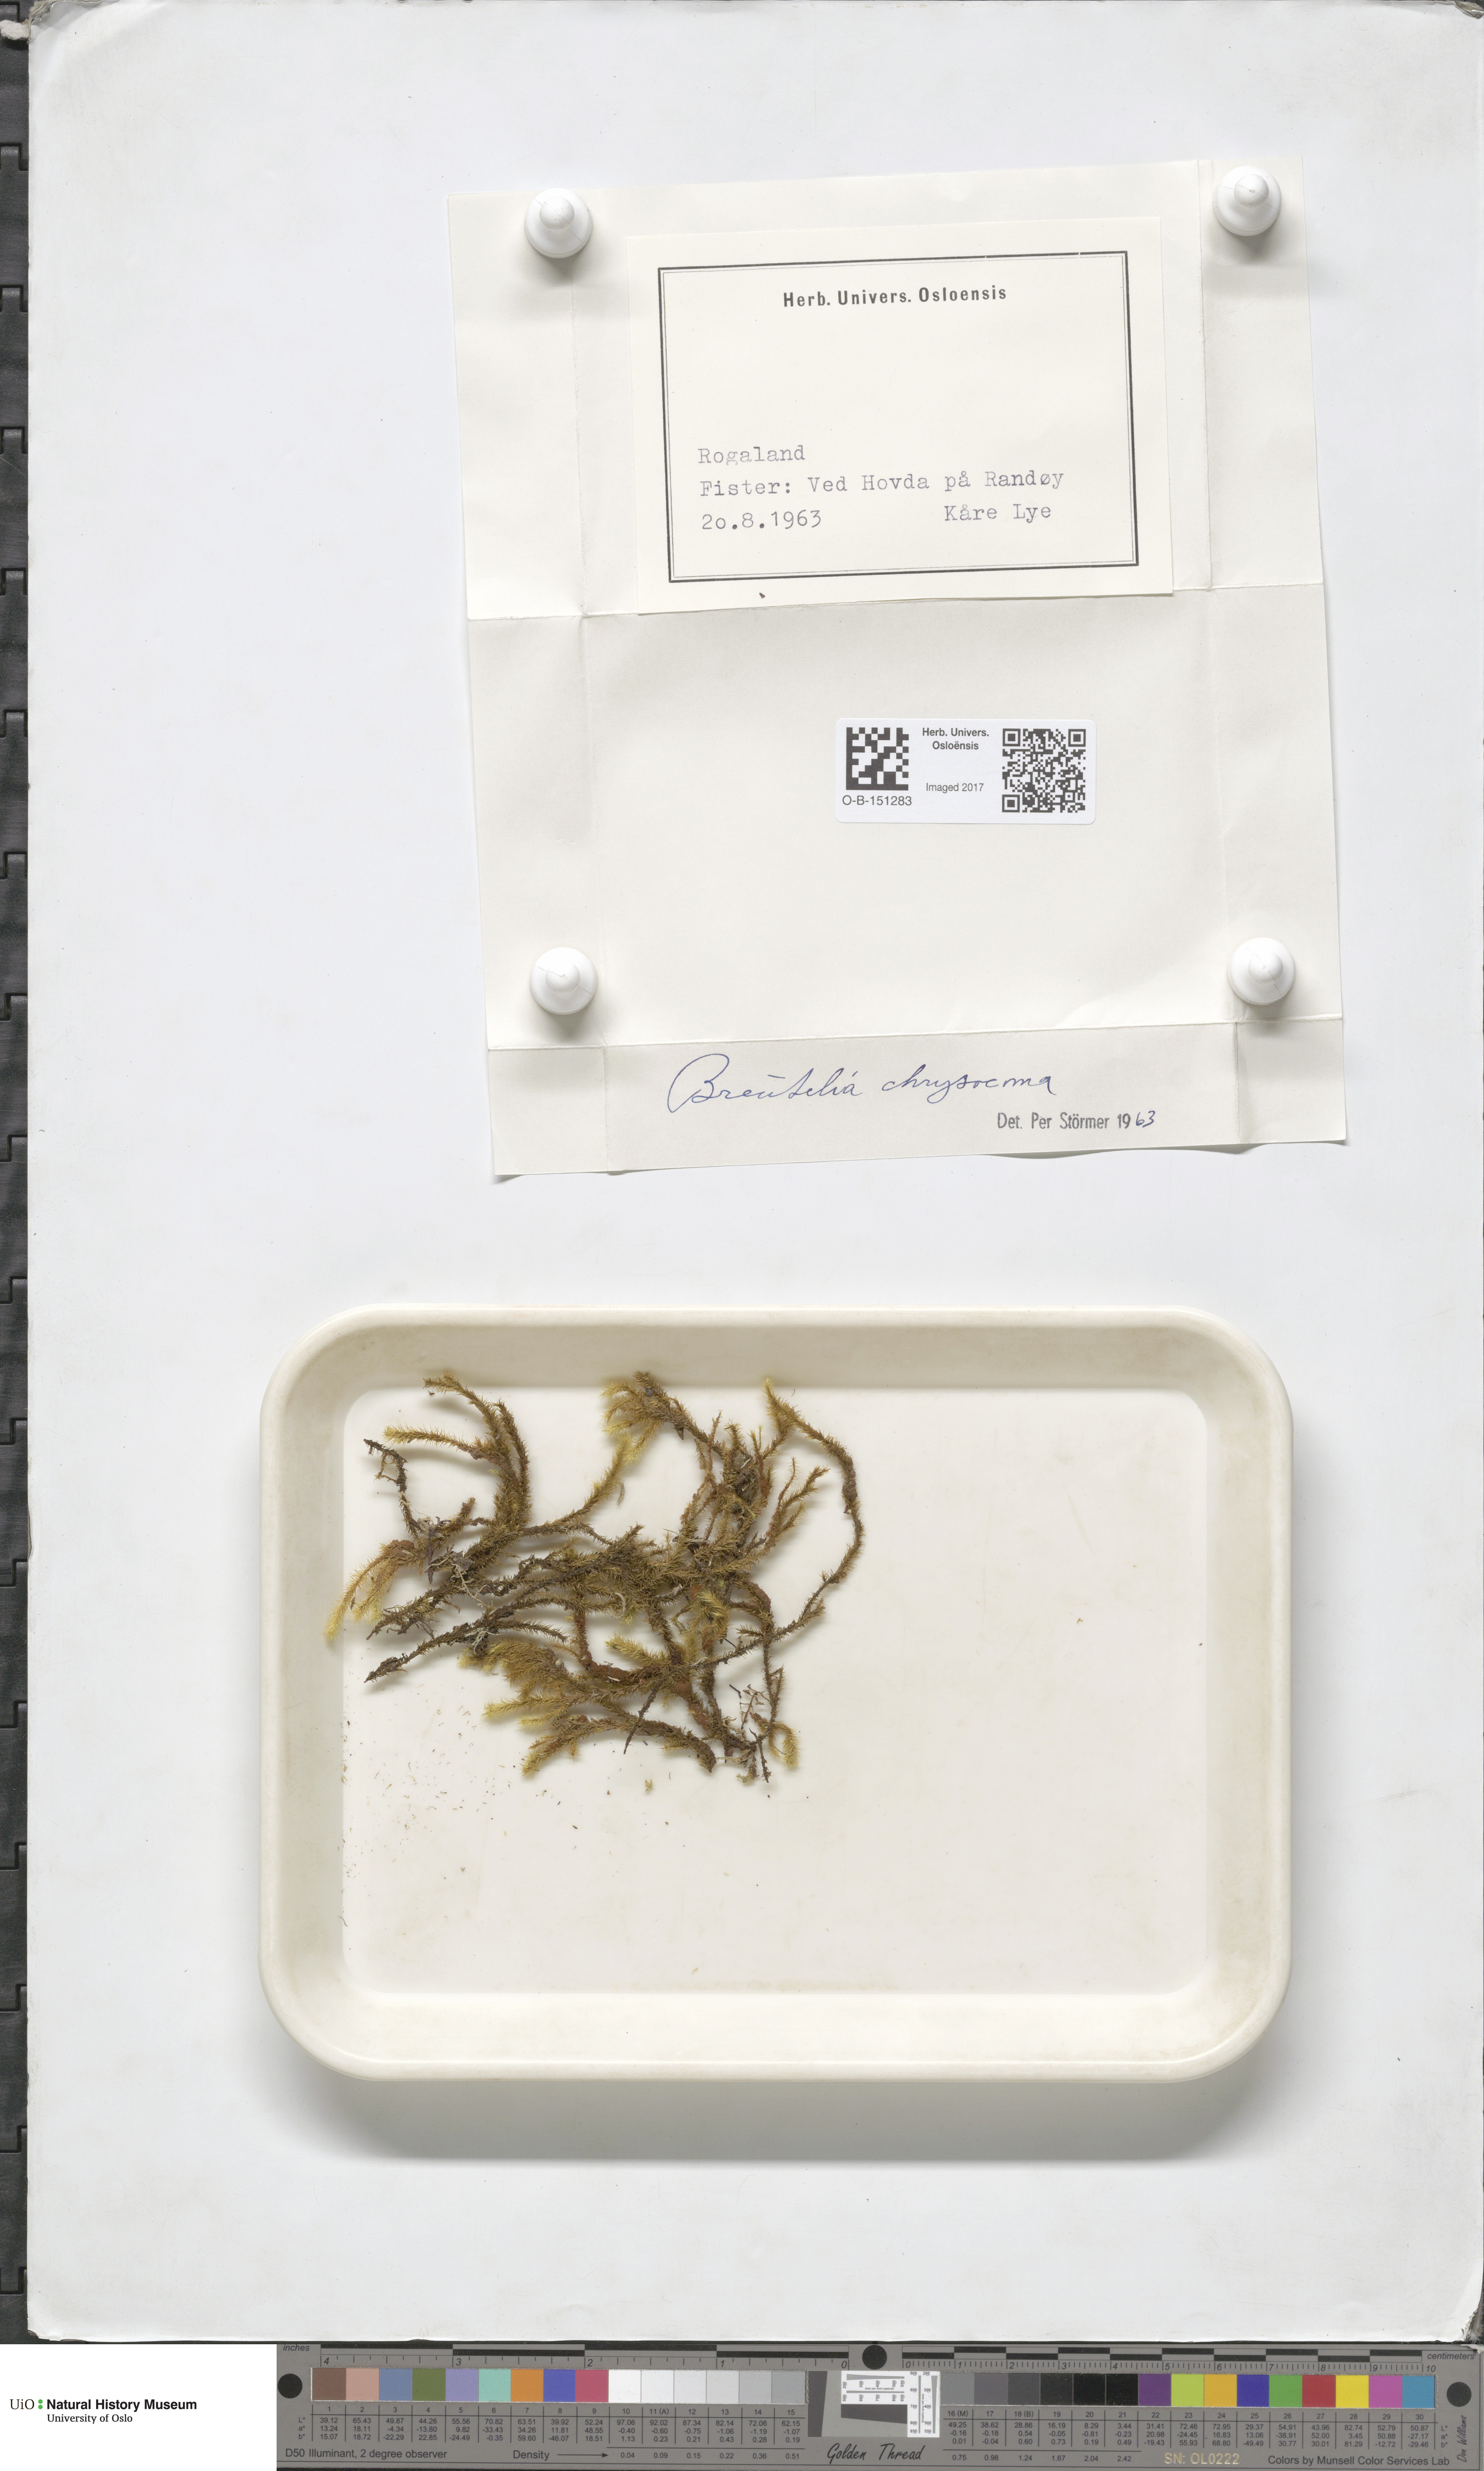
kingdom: Plantae
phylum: Bryophyta
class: Bryopsida
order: Bartramiales
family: Bartramiaceae
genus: Breutelia
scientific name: Breutelia chrysocoma
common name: Bottle-brush moss
